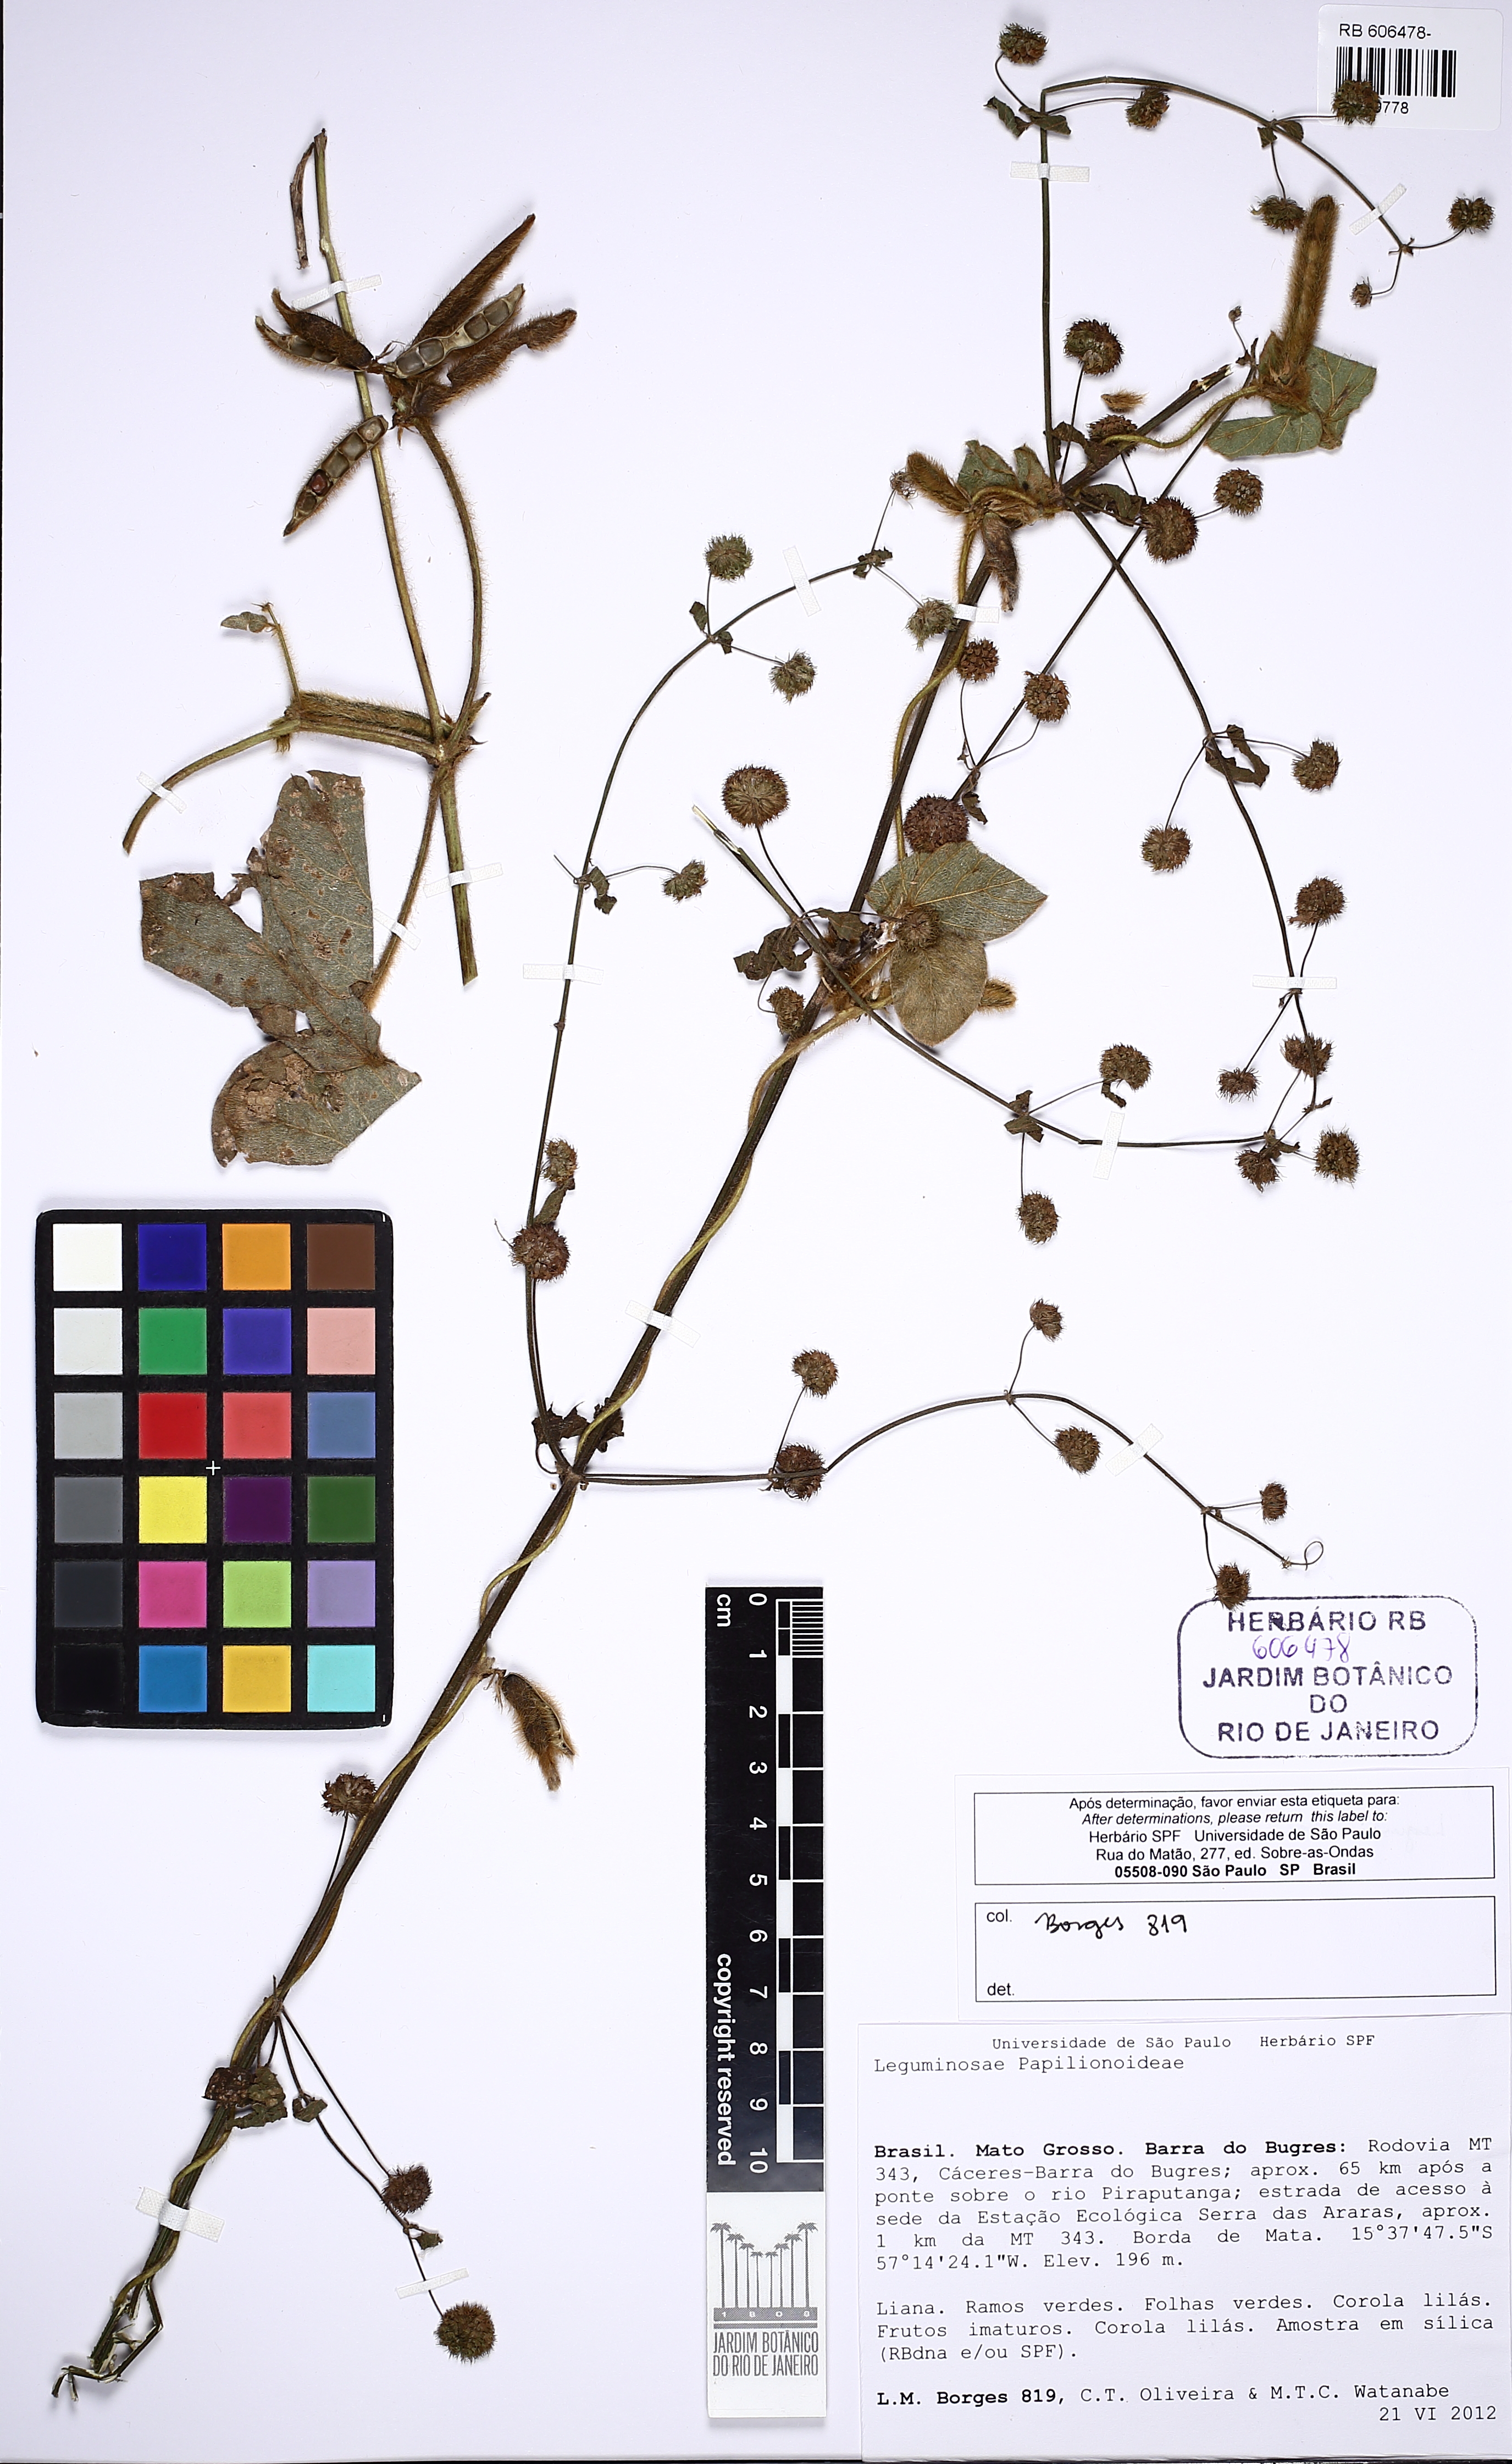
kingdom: Plantae
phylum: Tracheophyta
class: Magnoliopsida
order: Fabales
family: Fabaceae
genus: Calopogonium
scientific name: Calopogonium mucunoides
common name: Calopo
